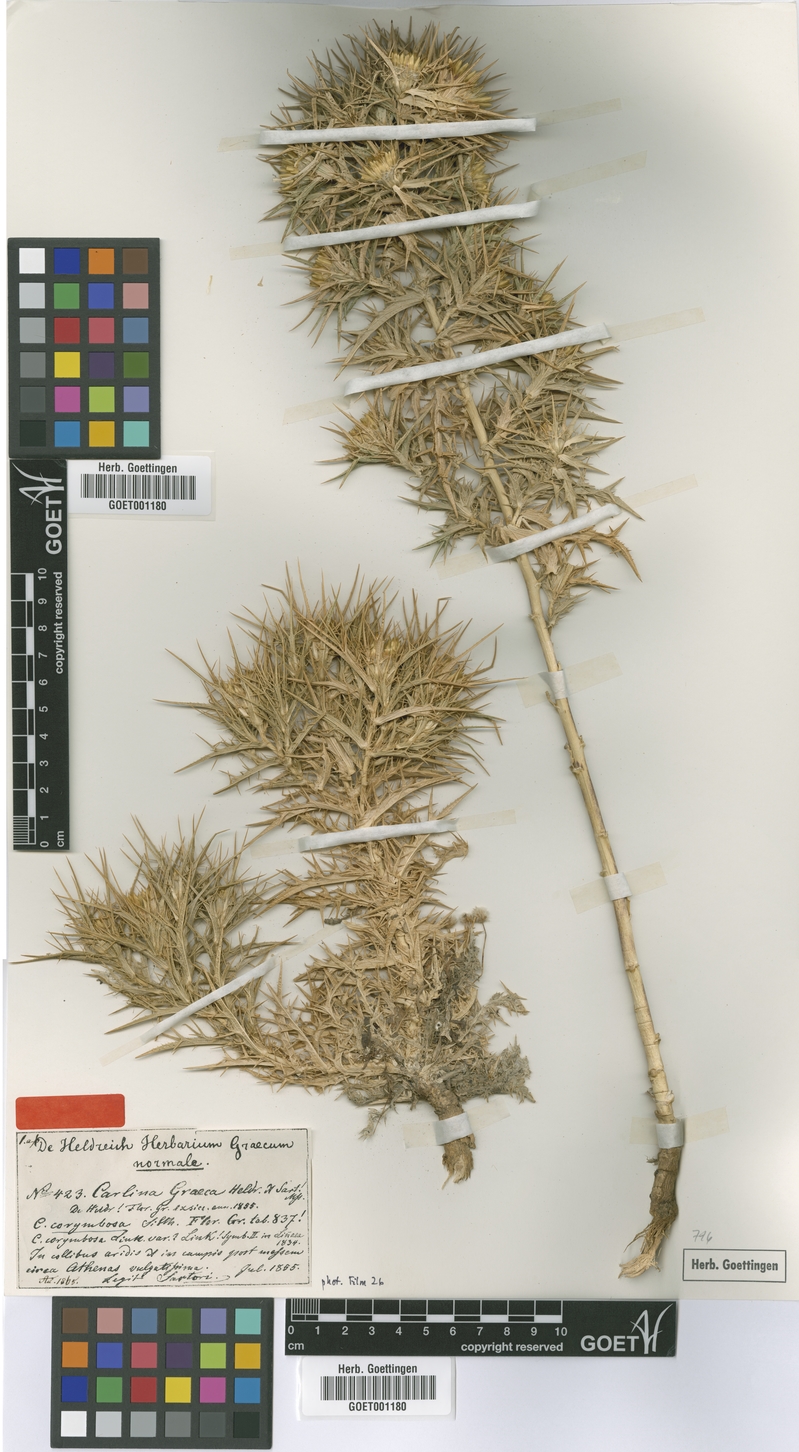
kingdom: Plantae
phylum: Tracheophyta
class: Magnoliopsida
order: Asterales
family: Asteraceae
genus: Carlina
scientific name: Carlina graeca
